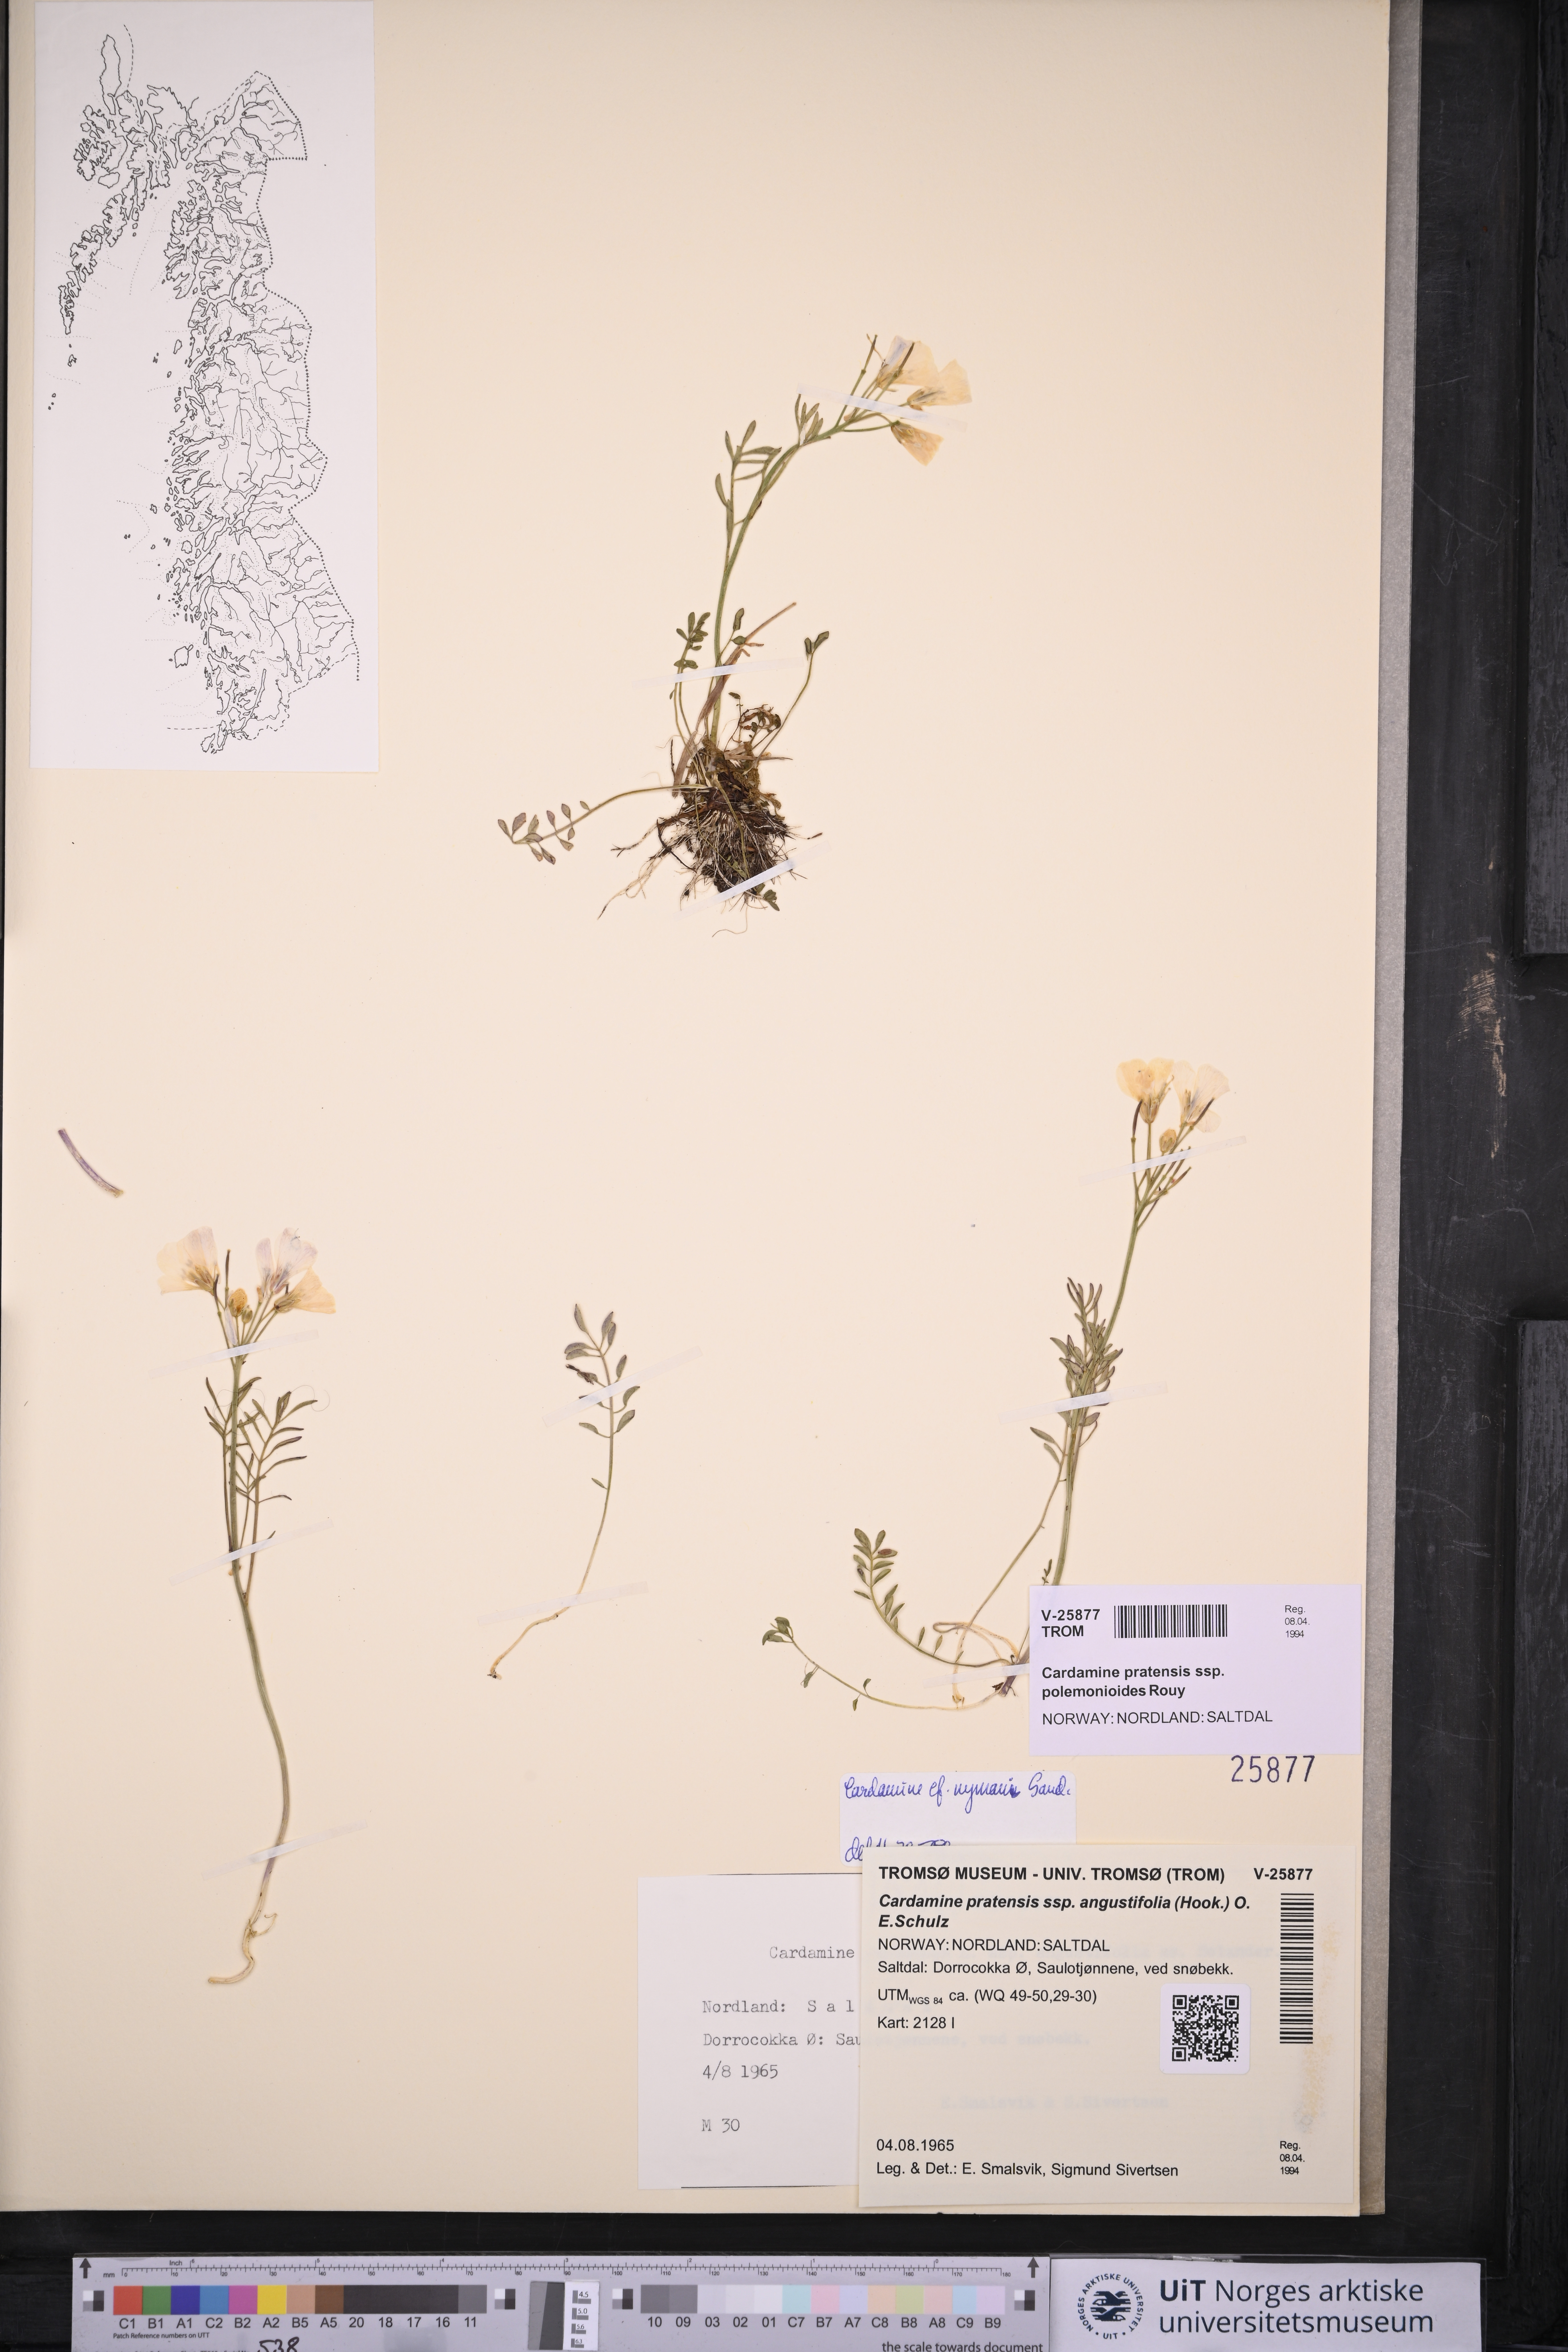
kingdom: Plantae
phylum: Tracheophyta
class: Magnoliopsida
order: Brassicales
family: Brassicaceae
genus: Cardamine
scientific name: Cardamine nymanii
